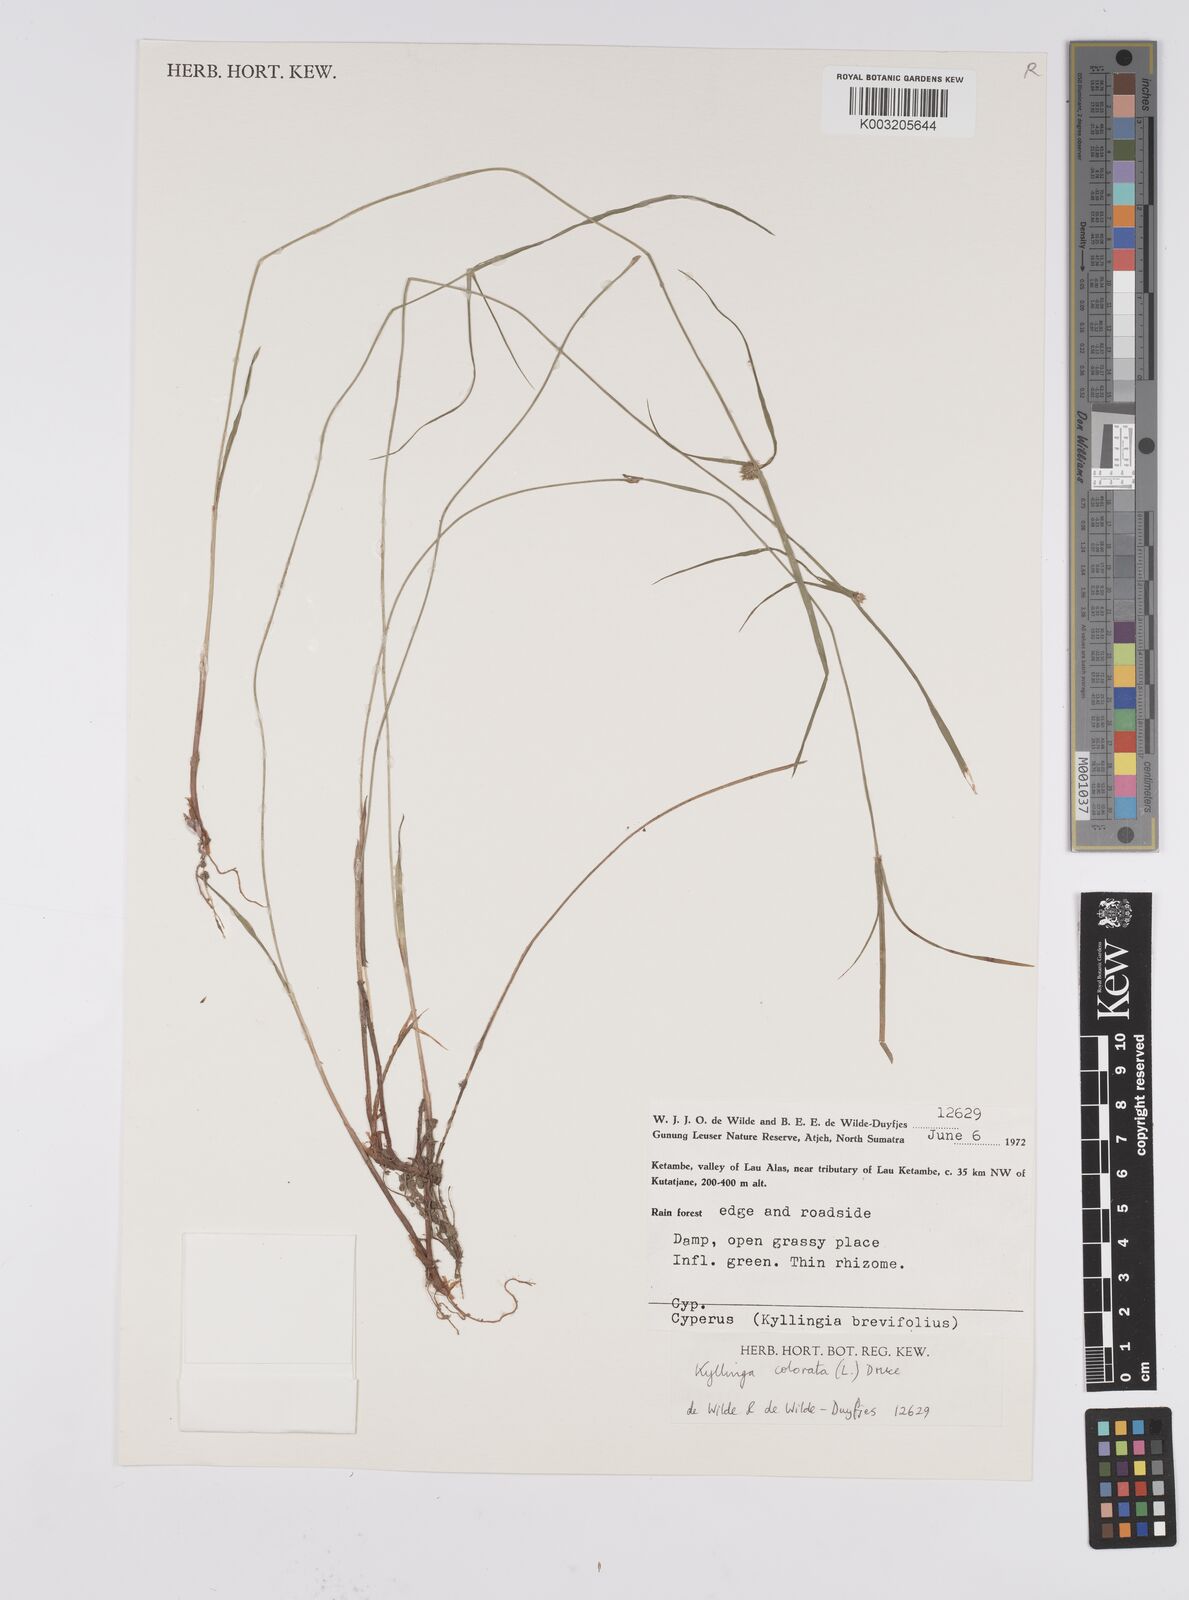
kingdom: Plantae
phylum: Tracheophyta
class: Liliopsida
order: Poales
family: Cyperaceae
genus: Cyperus
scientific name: Cyperus brevifolius
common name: Globe kyllinga
